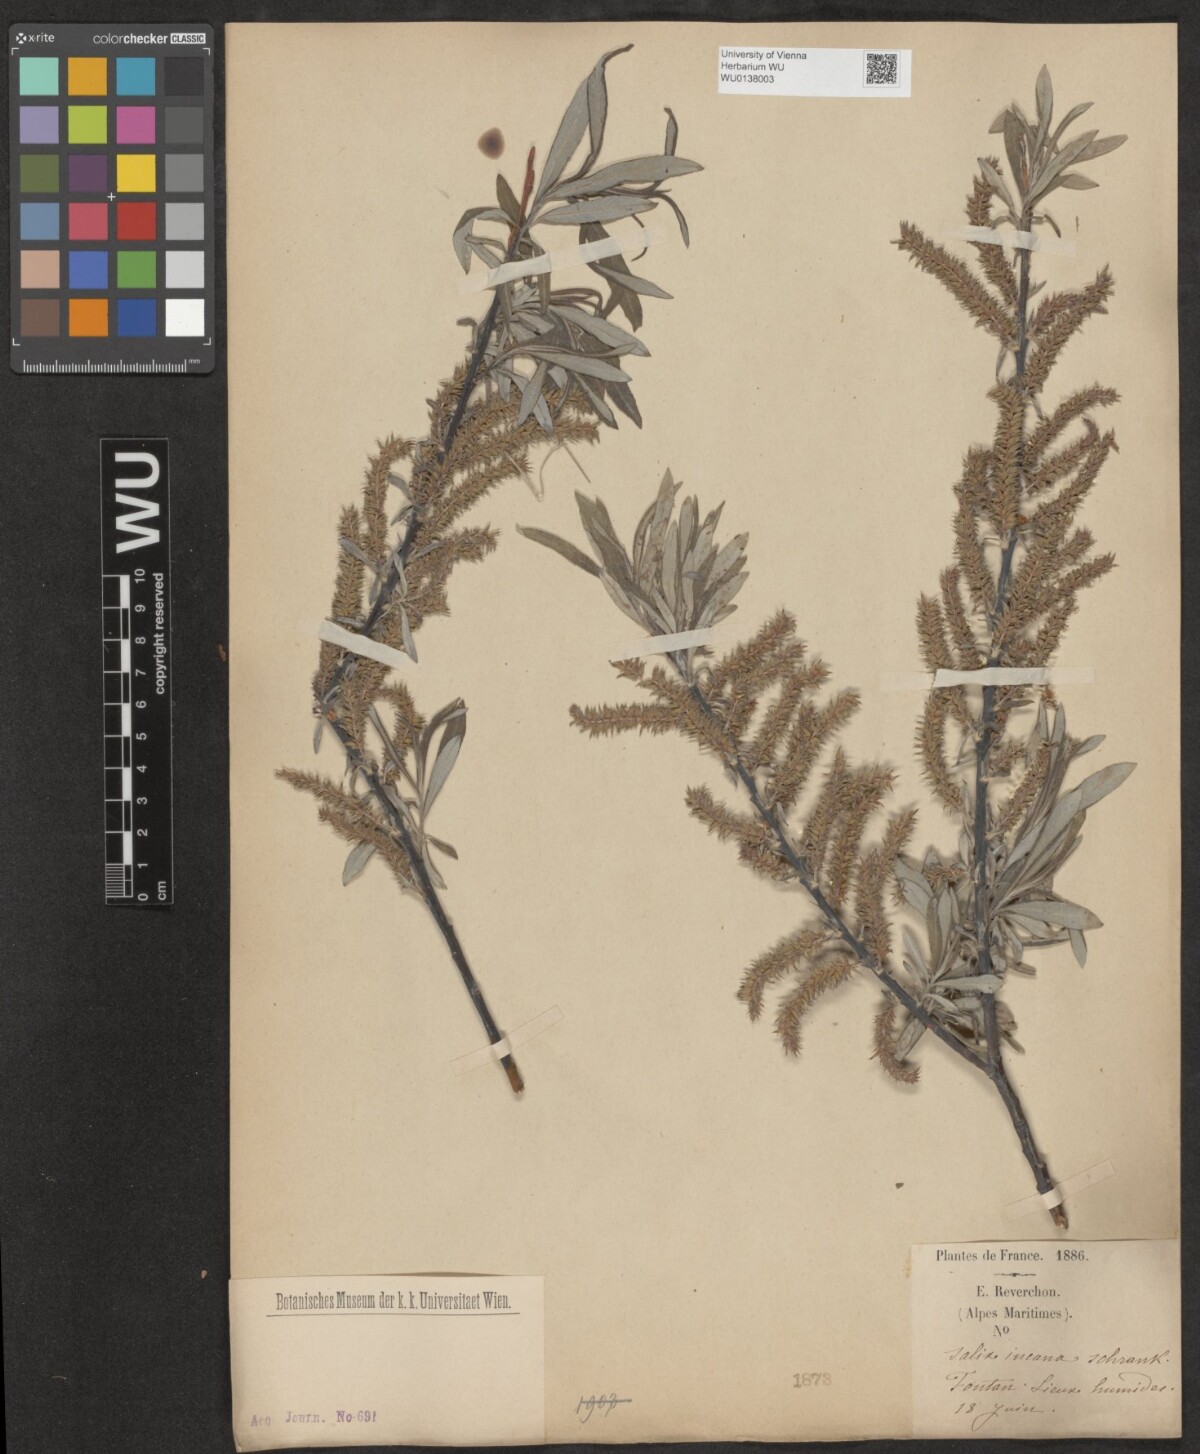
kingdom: Plantae
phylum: Tracheophyta
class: Magnoliopsida
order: Malpighiales
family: Salicaceae
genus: Salix
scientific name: Salix eleagnos
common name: Elaeagnus willow
